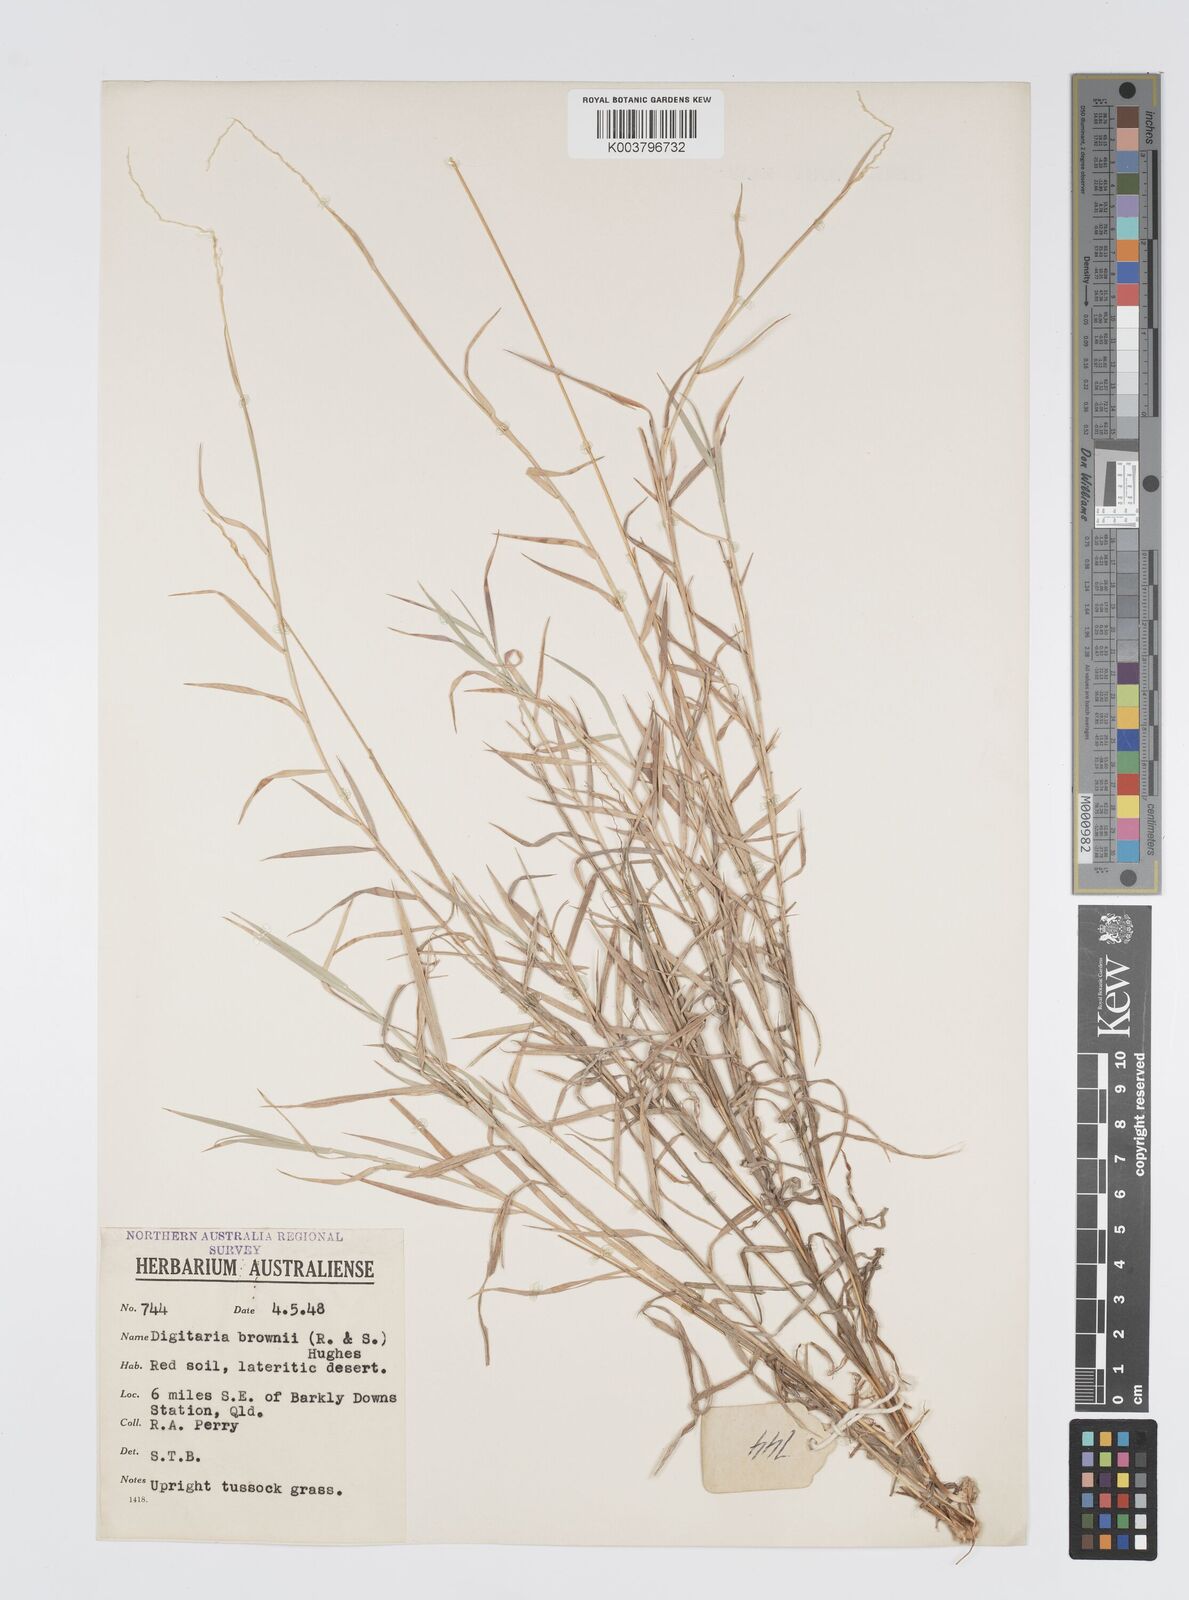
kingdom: Plantae
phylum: Tracheophyta
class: Liliopsida
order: Poales
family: Poaceae
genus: Digitaria
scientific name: Digitaria brownii
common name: Cotton grass
